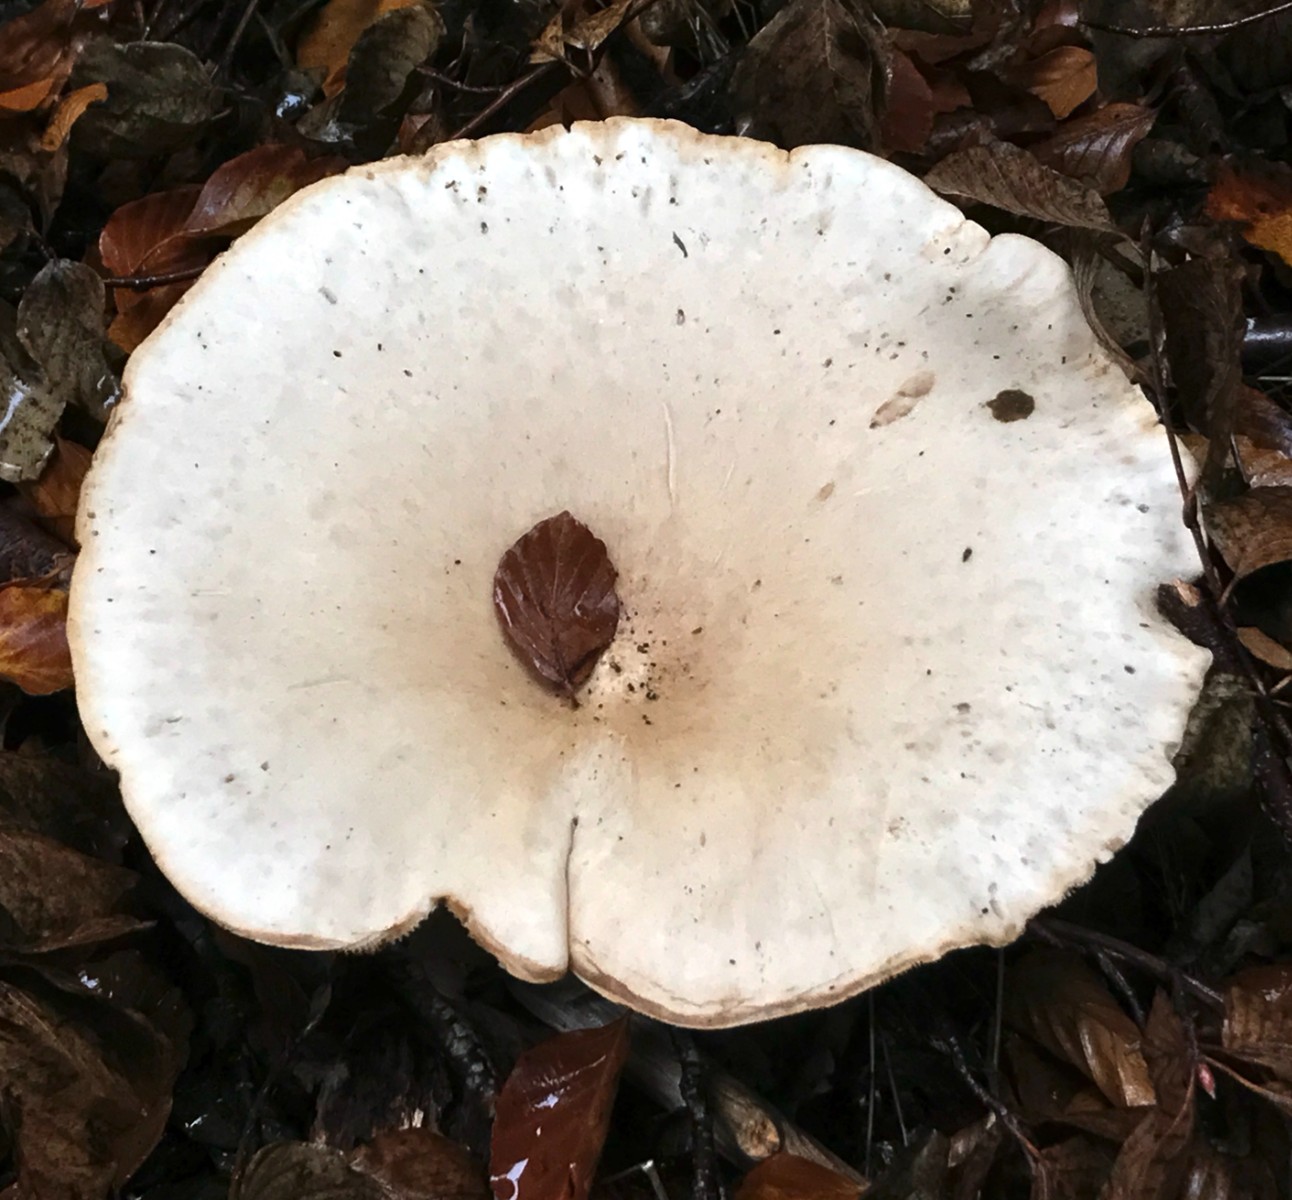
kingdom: Fungi
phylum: Basidiomycota
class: Agaricomycetes
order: Agaricales
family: Tricholomataceae
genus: Infundibulicybe
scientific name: Infundibulicybe geotropa
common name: stor tragthat
